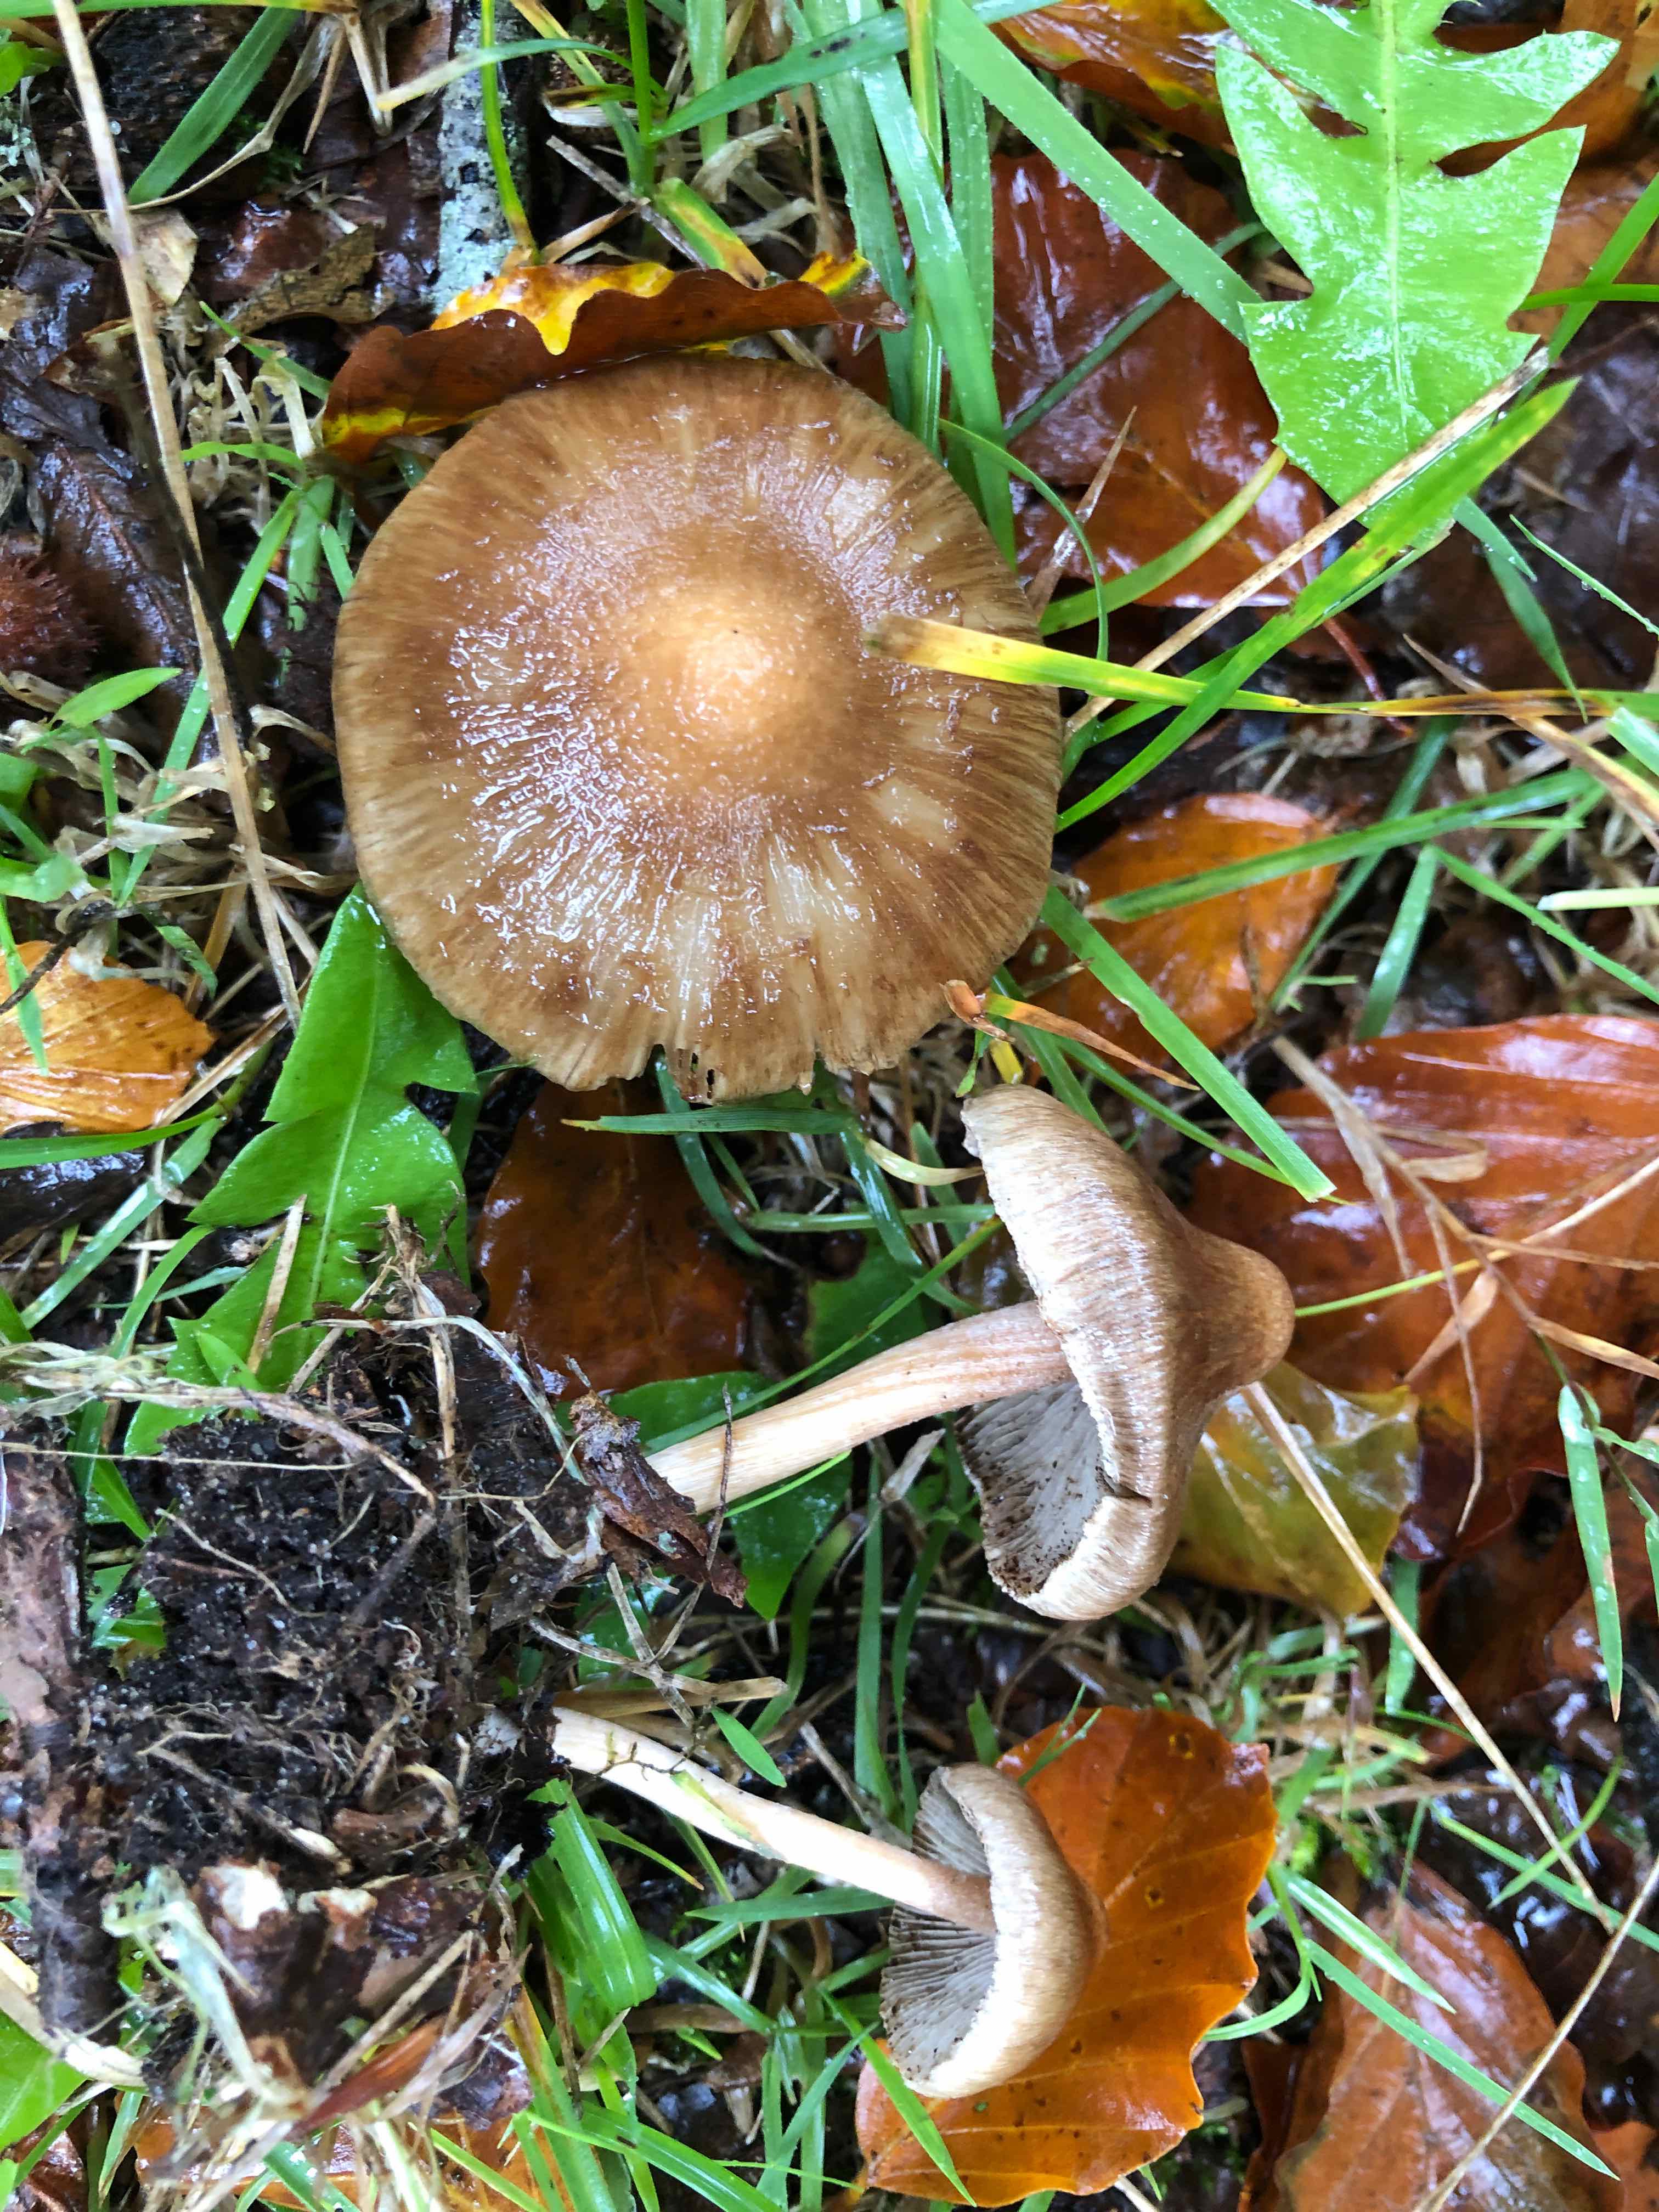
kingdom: Fungi
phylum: Basidiomycota
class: Agaricomycetes
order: Agaricales
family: Inocybaceae
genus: Inocybe
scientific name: Inocybe pseudodestricta
